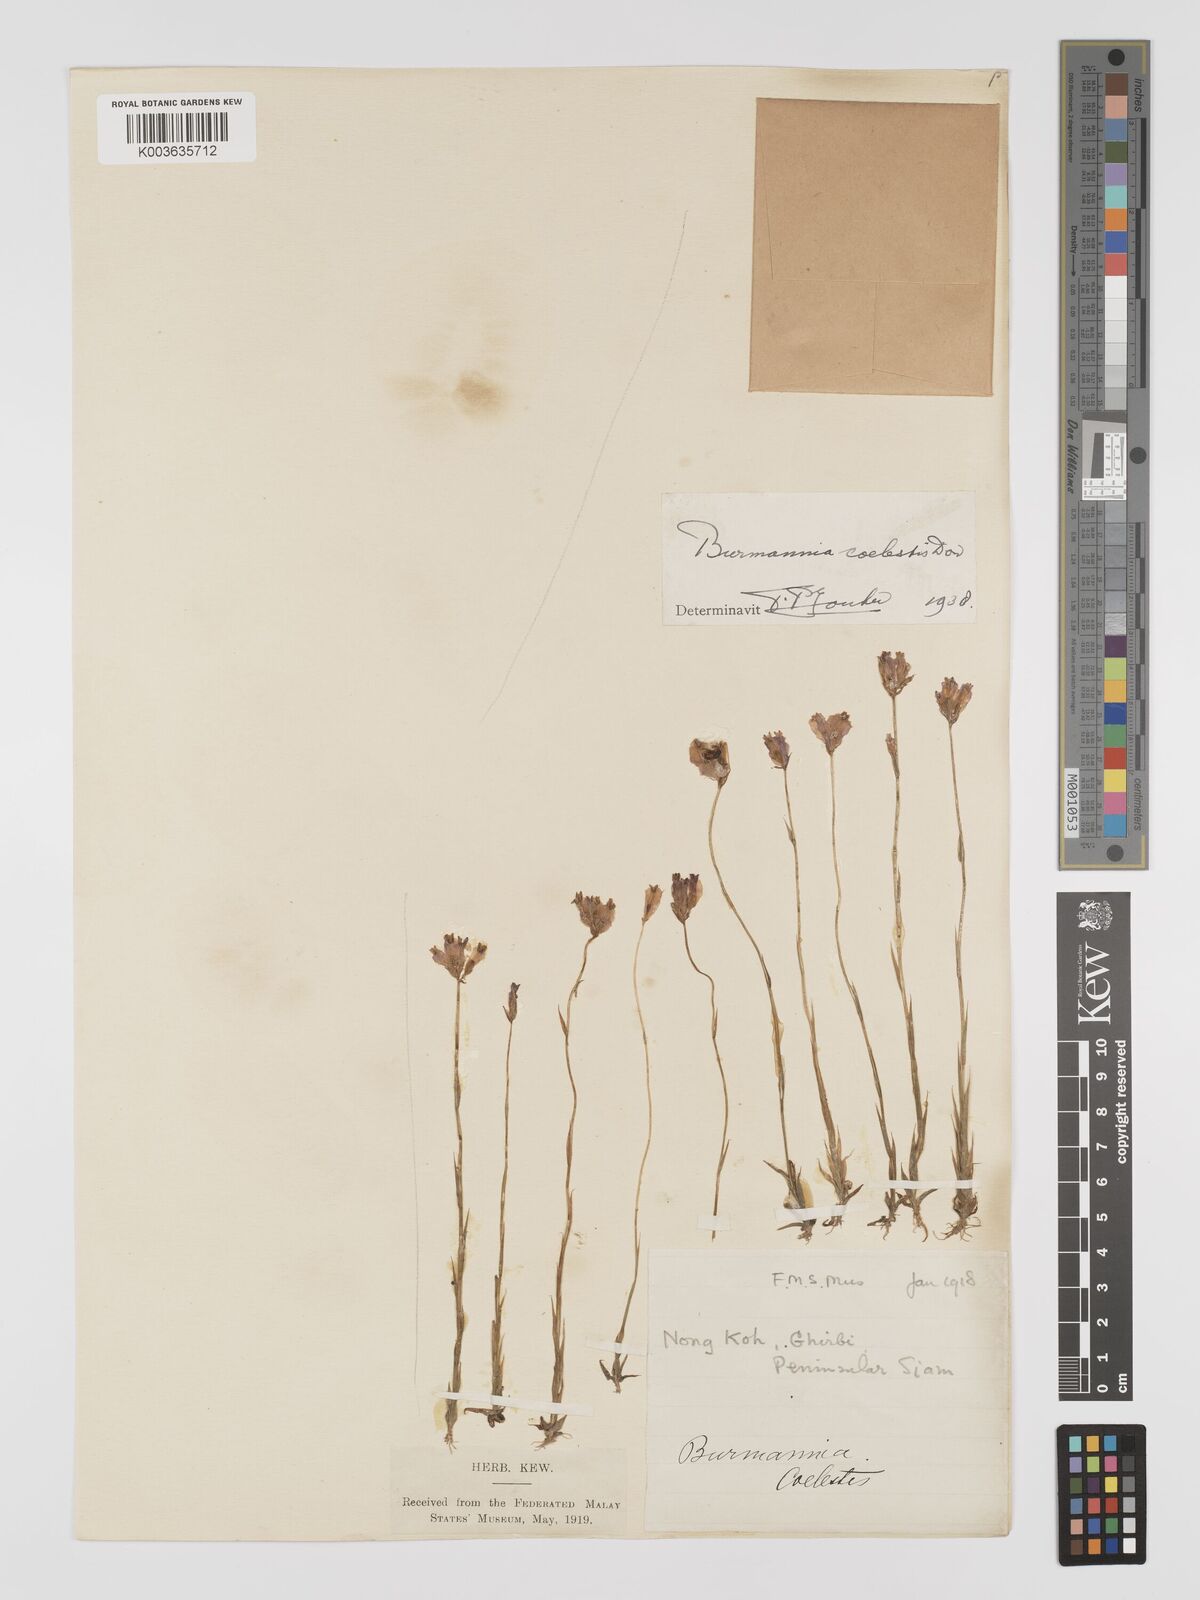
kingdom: Plantae
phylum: Tracheophyta
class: Liliopsida
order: Dioscoreales
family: Burmanniaceae
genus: Burmannia
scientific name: Burmannia coelestis
